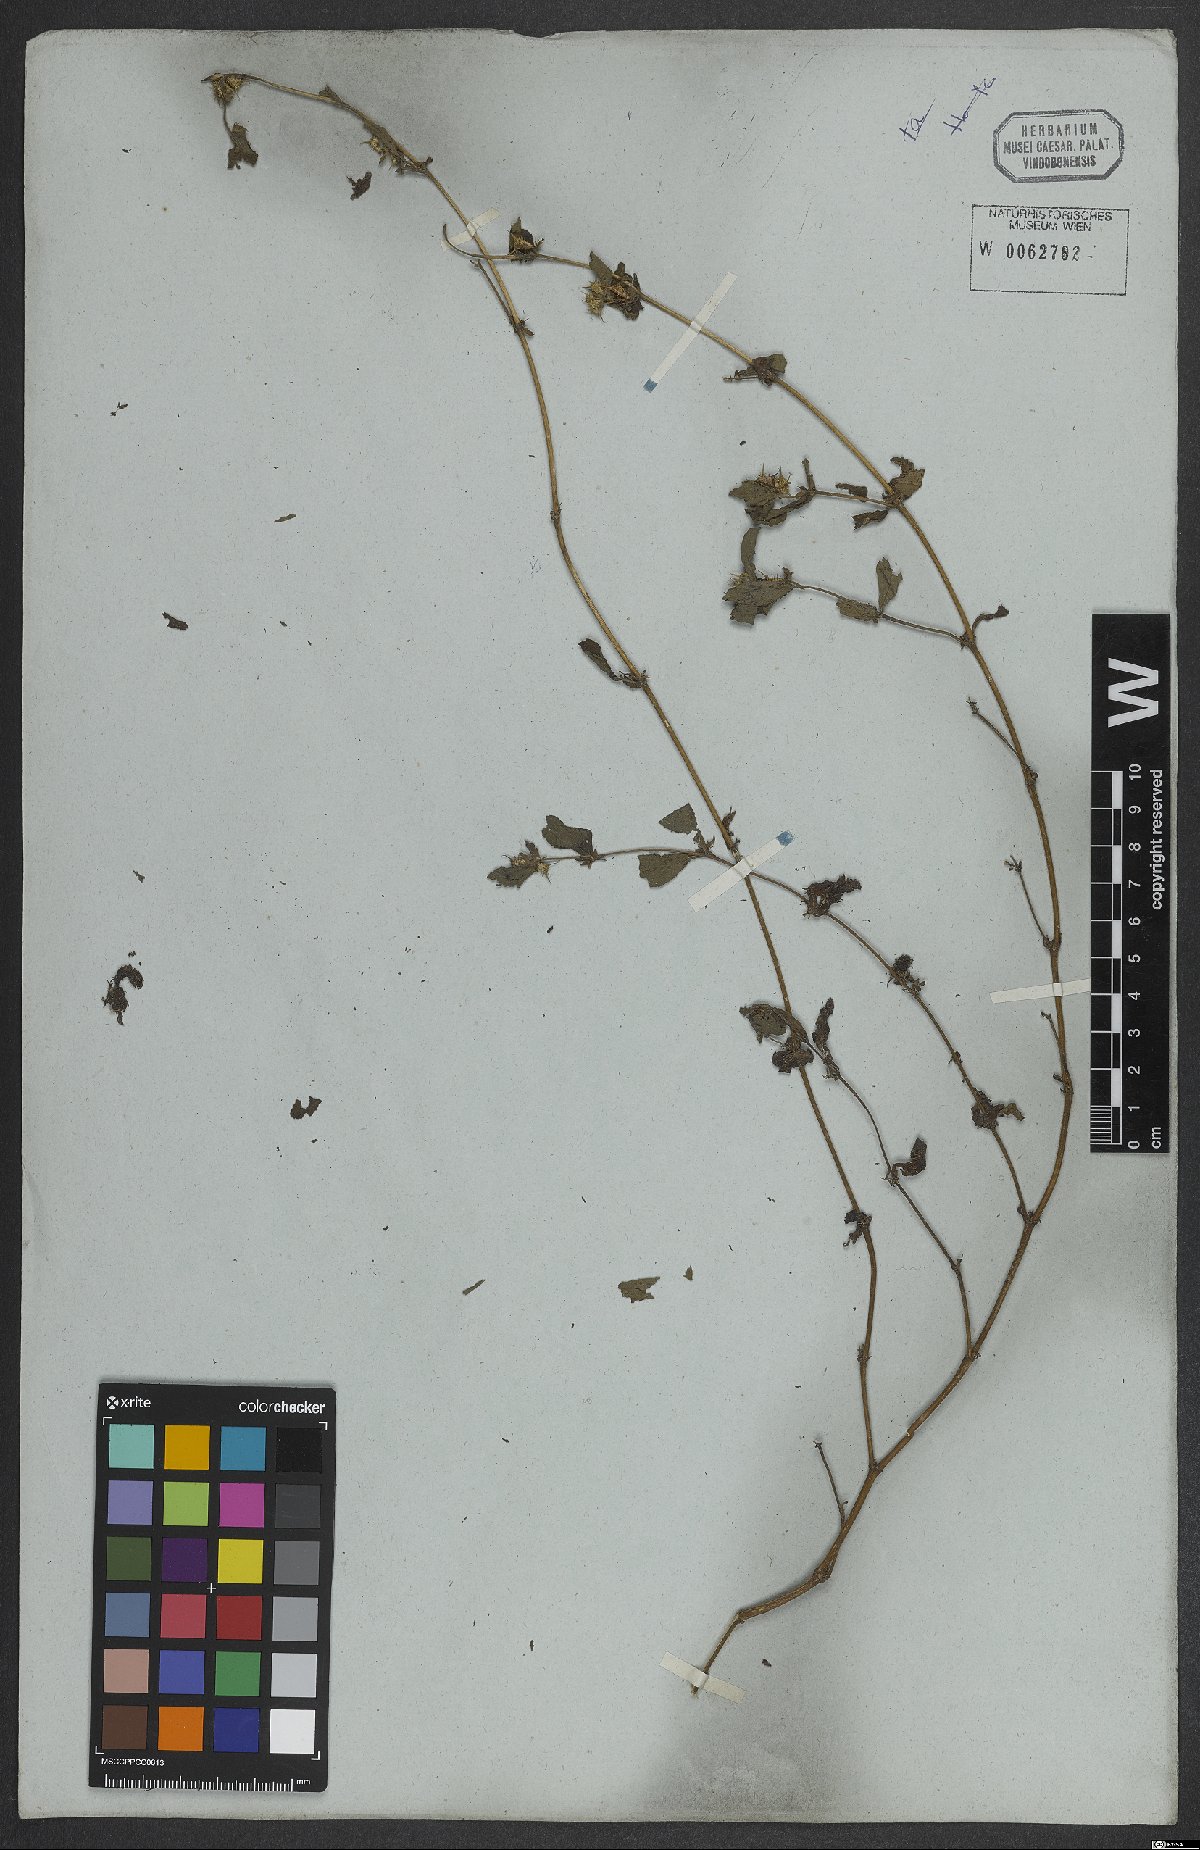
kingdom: Plantae
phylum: Tracheophyta
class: Magnoliopsida
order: Asterales
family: Asteraceae
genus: Acanthospermum
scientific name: Acanthospermum hispidum
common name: Hispid starbur
